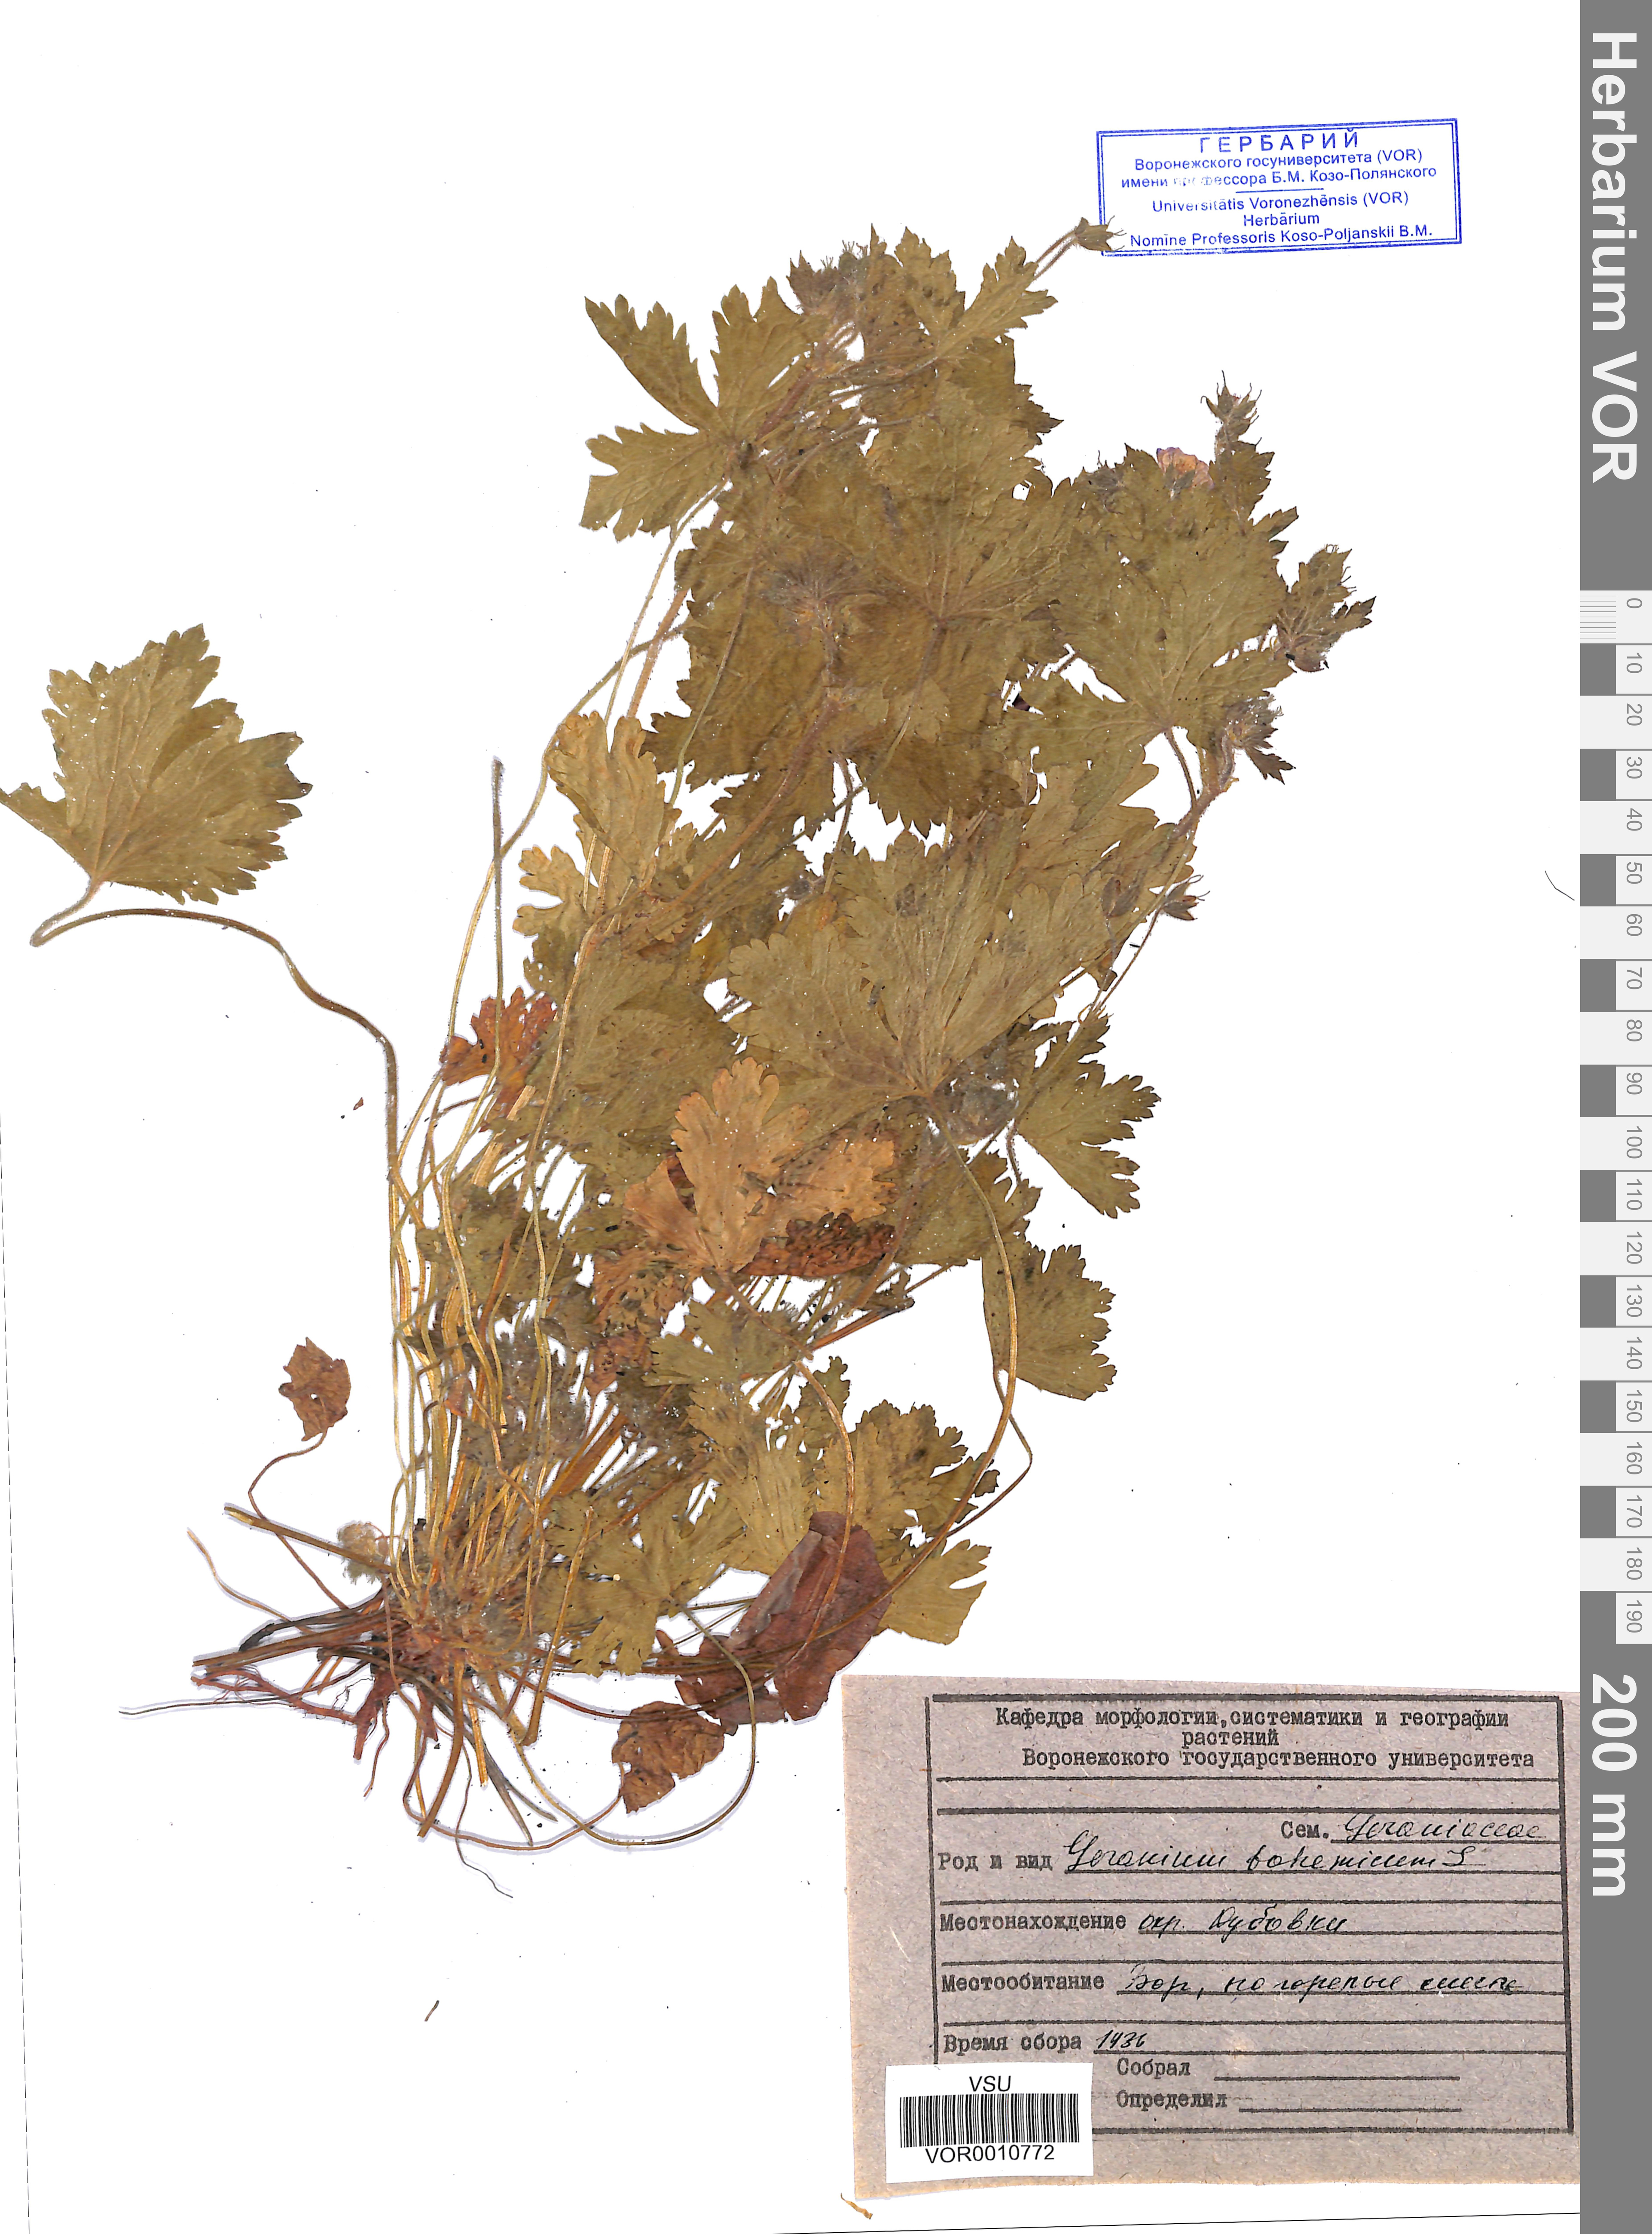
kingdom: Plantae
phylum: Tracheophyta
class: Magnoliopsida
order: Geraniales
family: Geraniaceae
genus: Geranium
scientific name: Geranium bohemicum
